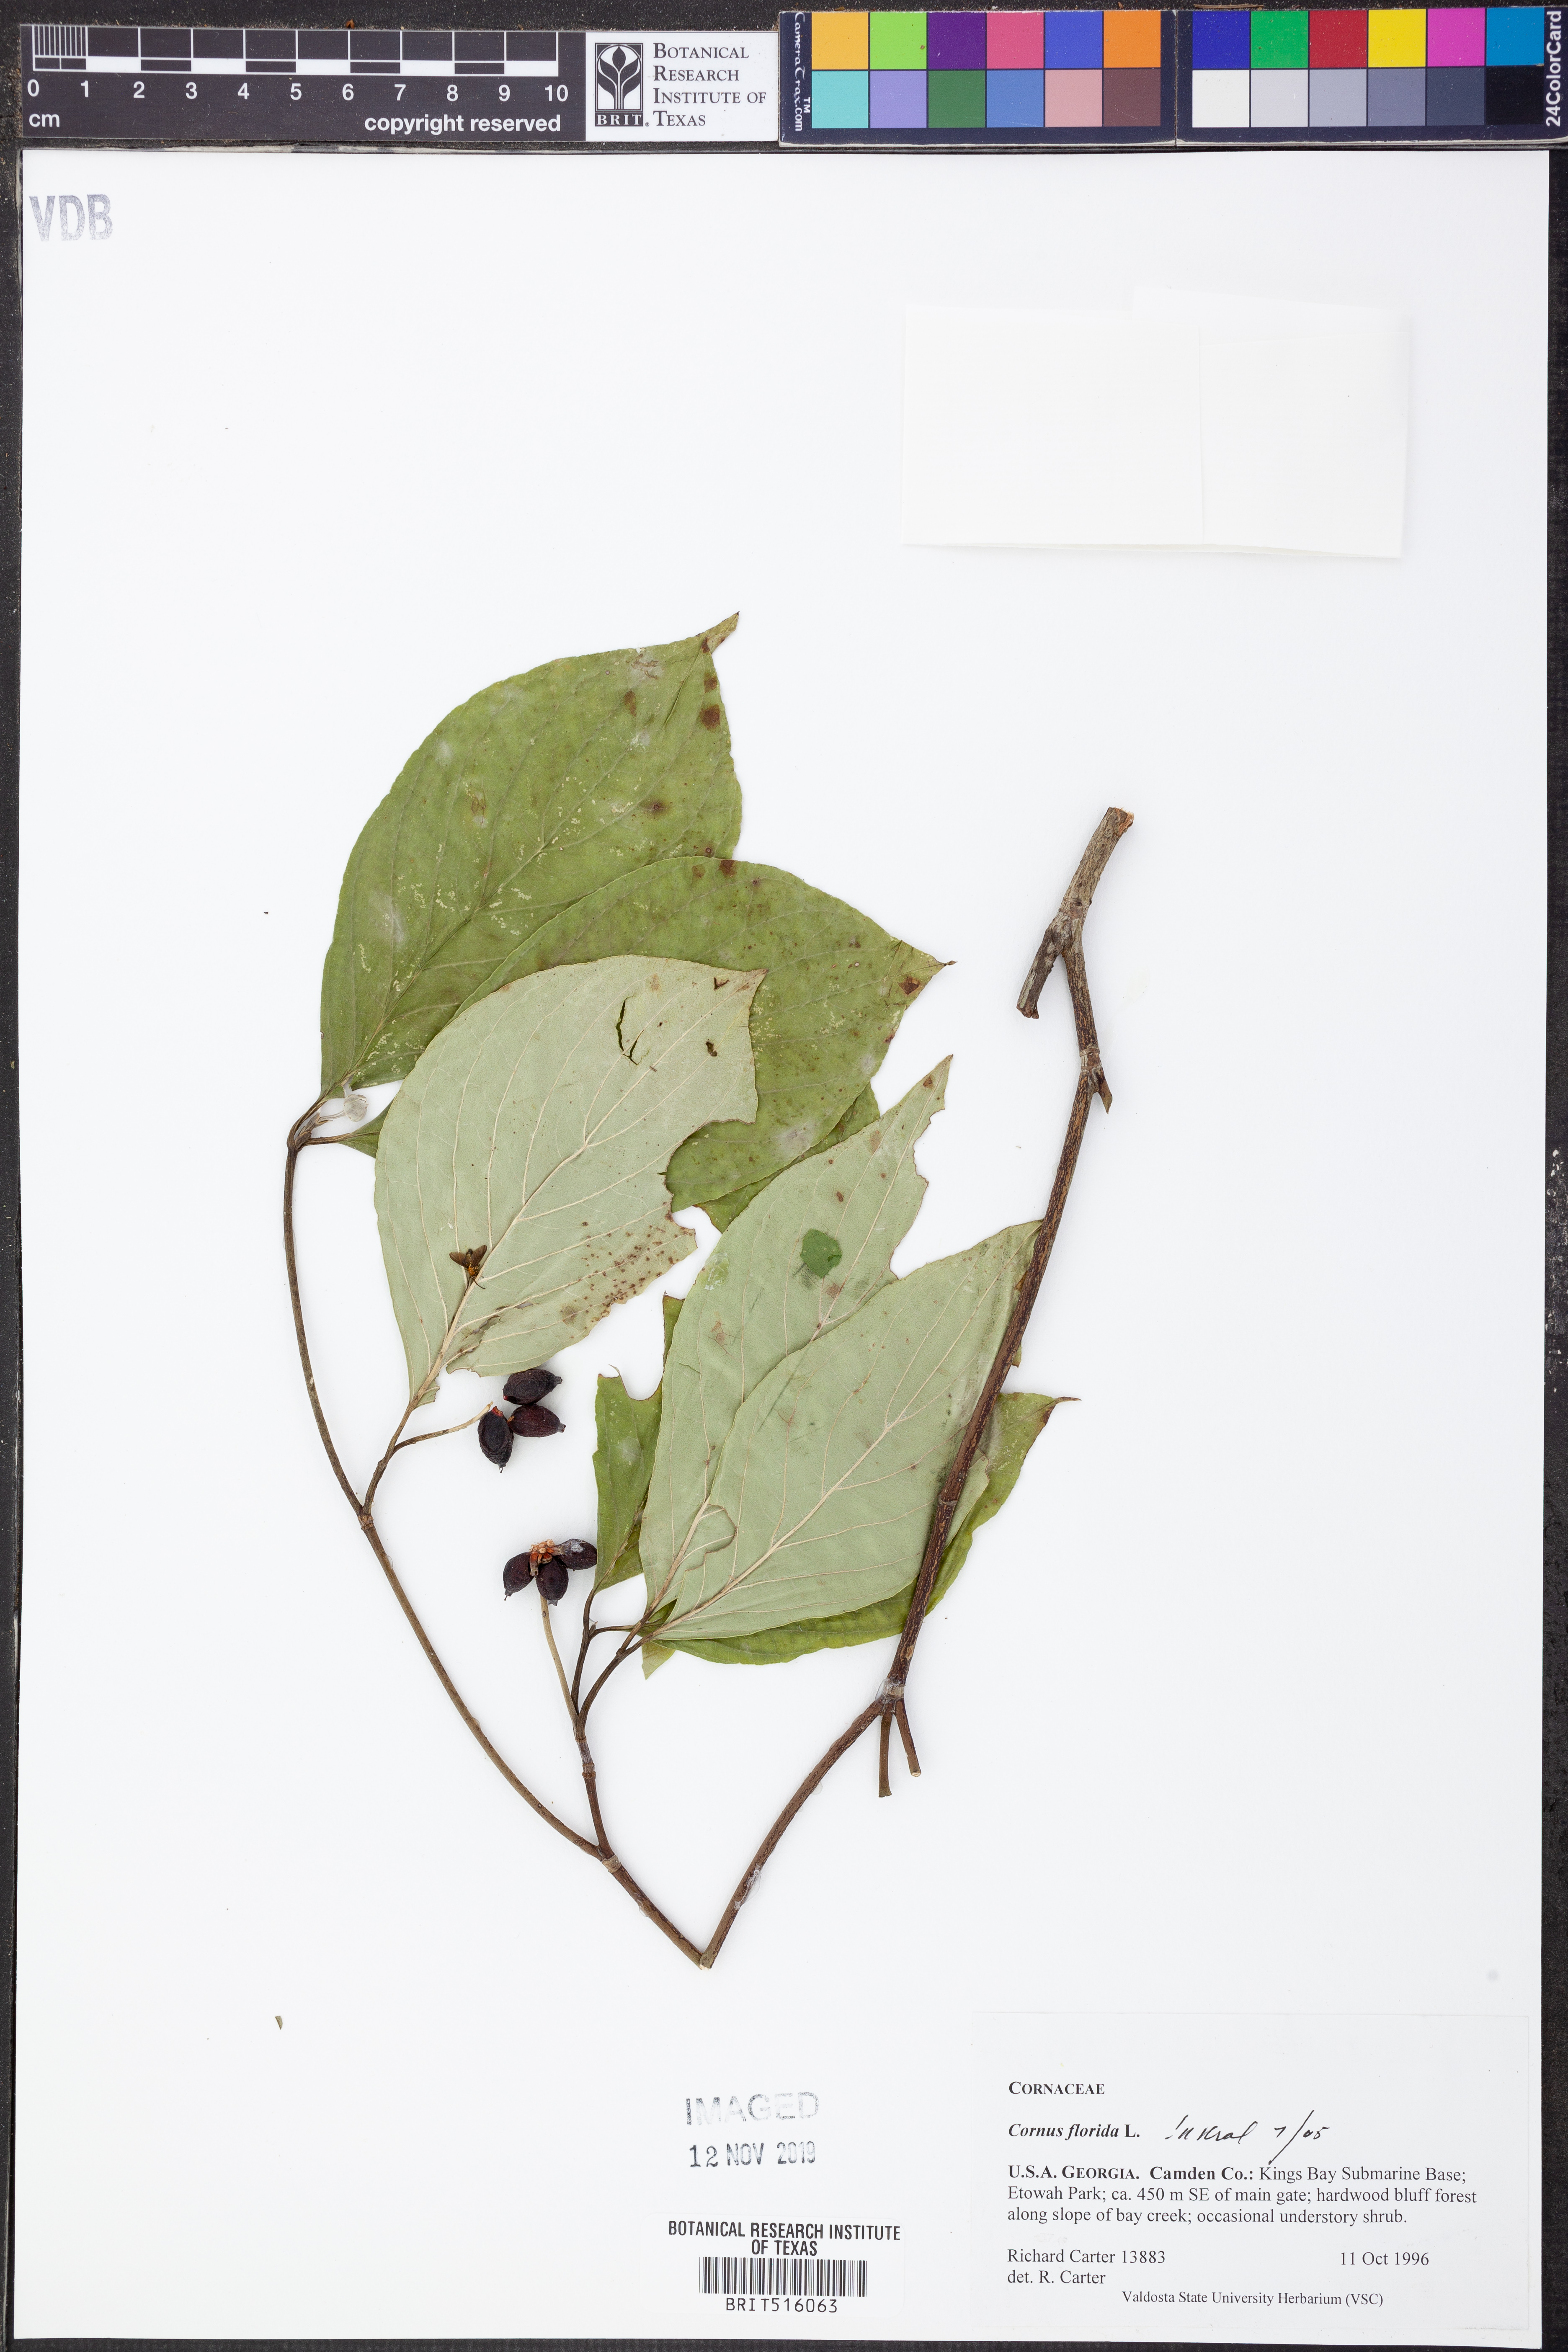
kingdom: Plantae
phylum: Tracheophyta
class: Magnoliopsida
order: Cornales
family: Cornaceae
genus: Cornus
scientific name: Cornus florida
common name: Flowering dogwood
